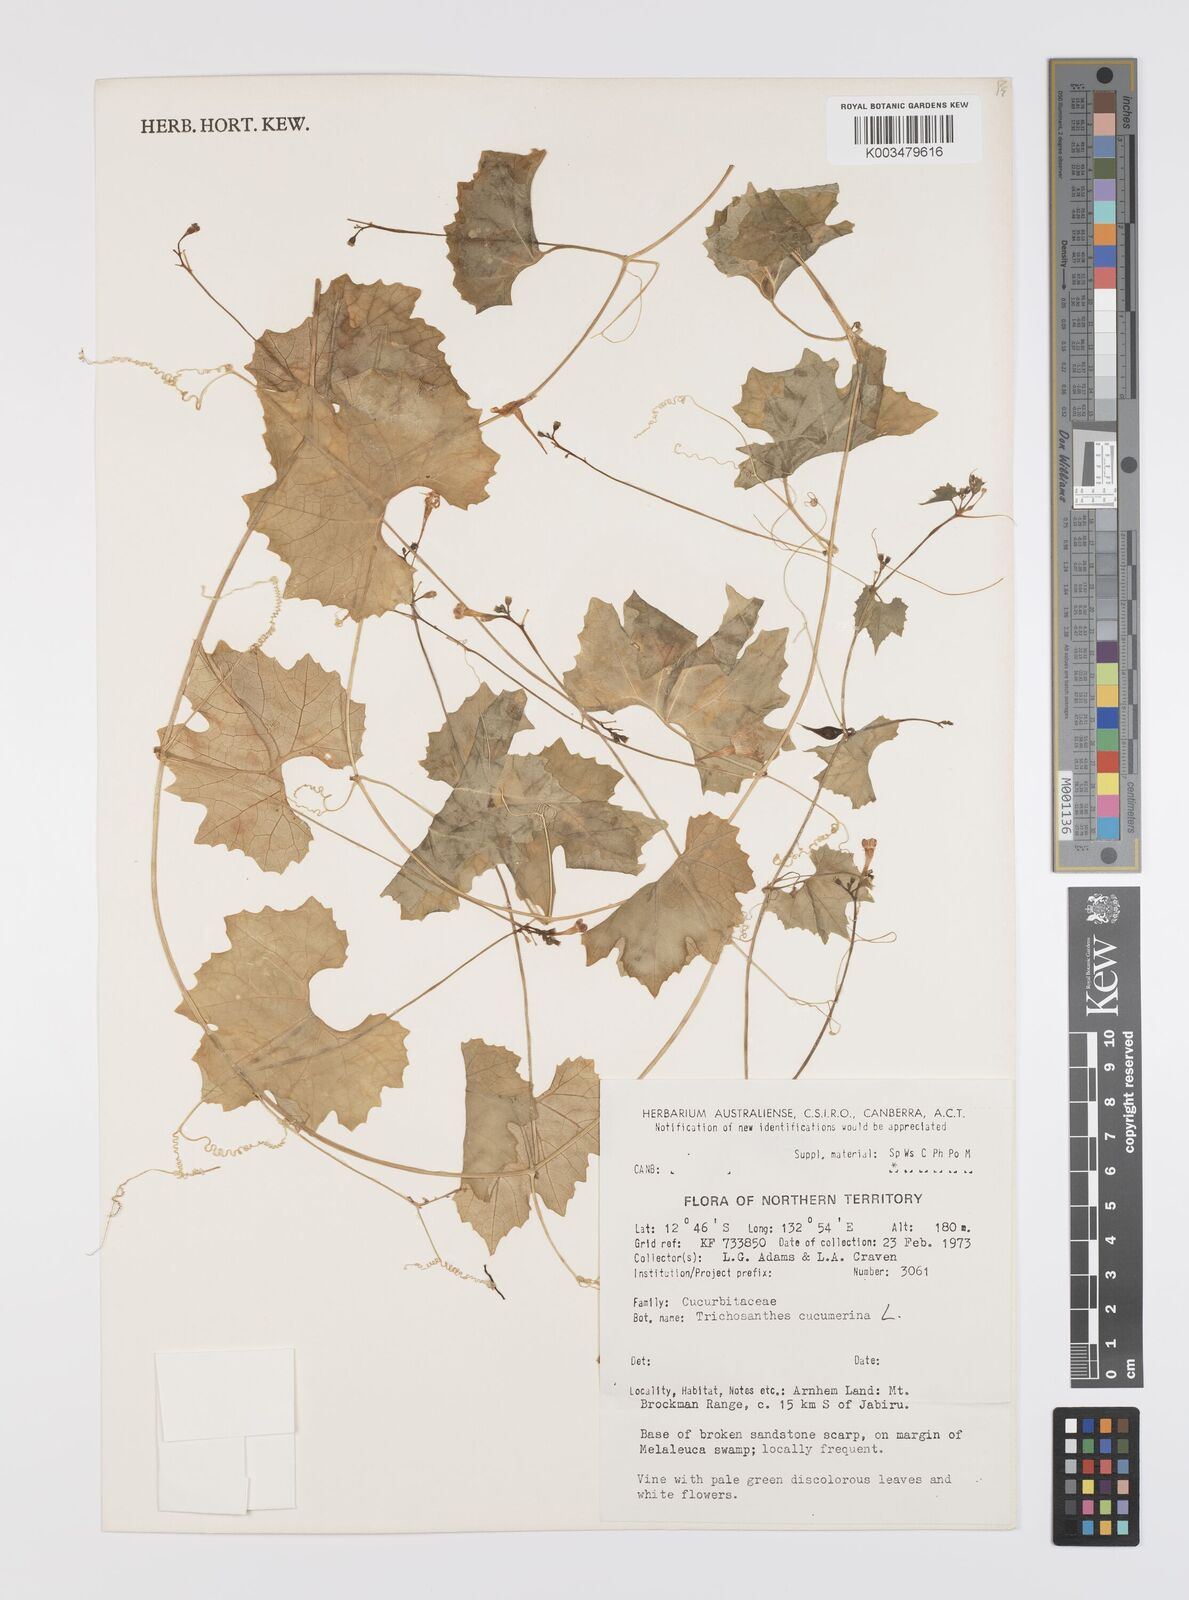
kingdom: Plantae
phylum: Tracheophyta
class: Magnoliopsida
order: Cucurbitales
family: Cucurbitaceae
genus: Trichosanthes
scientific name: Trichosanthes cucumerina
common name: Snakegourd
